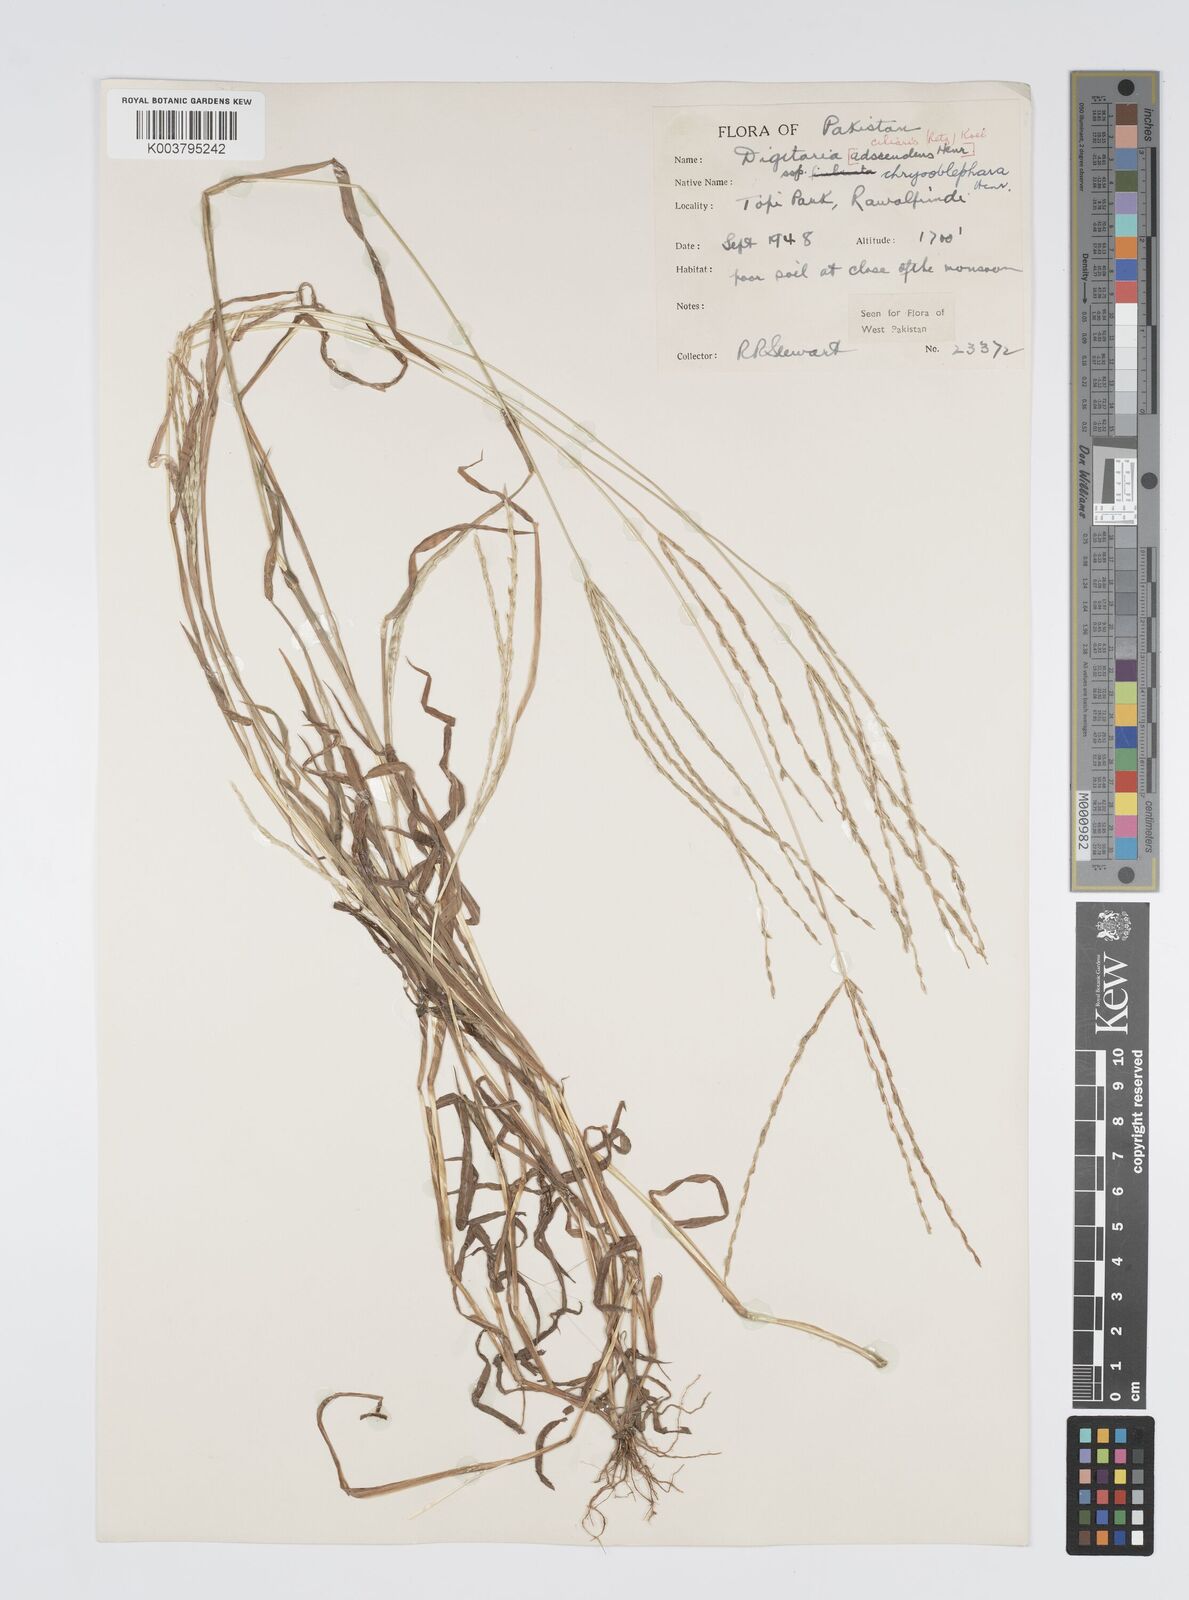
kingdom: Plantae
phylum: Tracheophyta
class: Liliopsida
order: Poales
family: Poaceae
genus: Digitaria
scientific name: Digitaria ciliaris
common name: Tropical finger-grass
